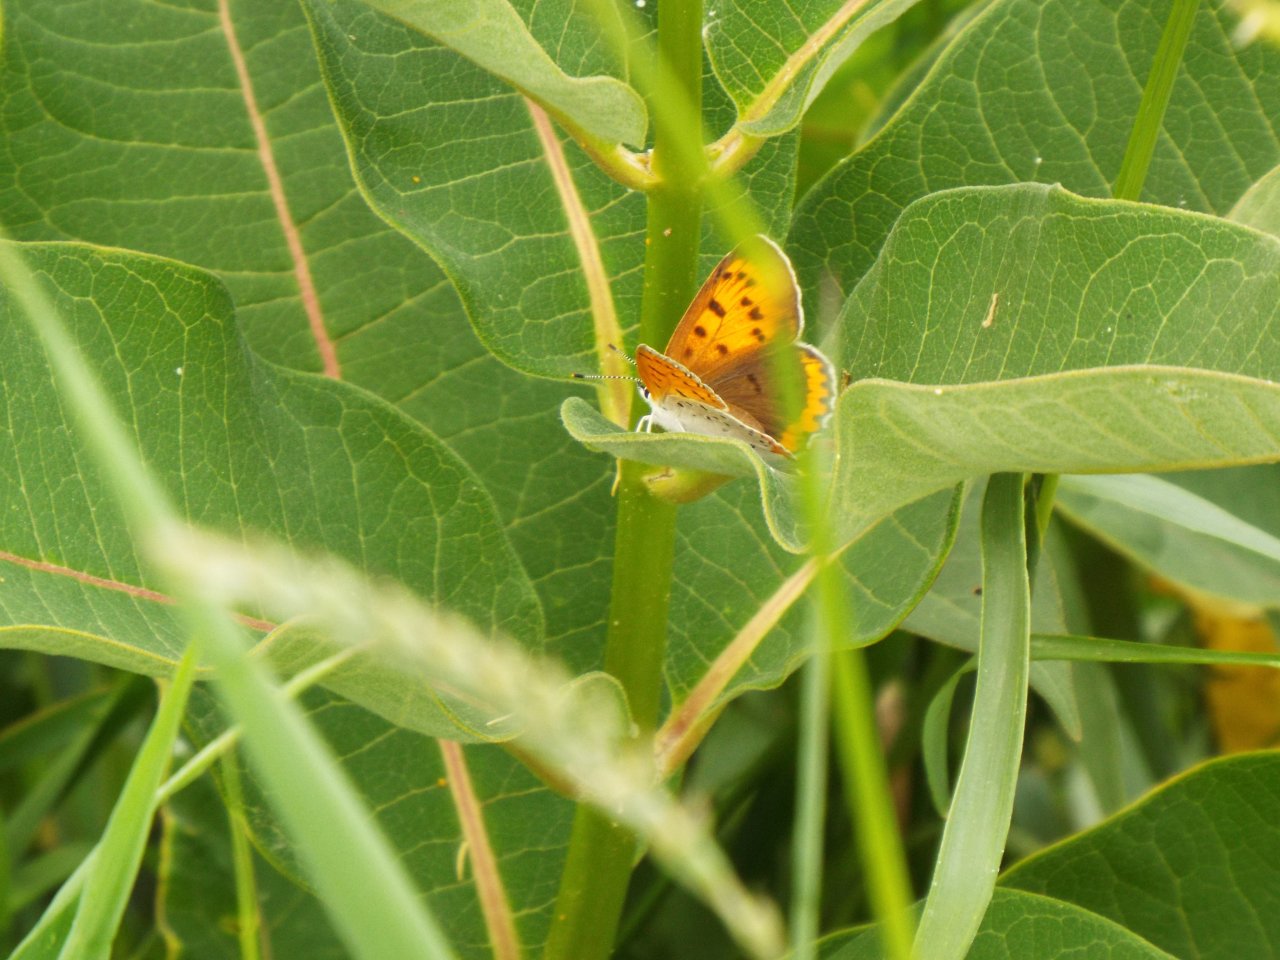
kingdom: Animalia
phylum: Arthropoda
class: Insecta
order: Lepidoptera
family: Sesiidae
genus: Sesia
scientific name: Sesia Lycaena hyllus
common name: Bronze Copper
